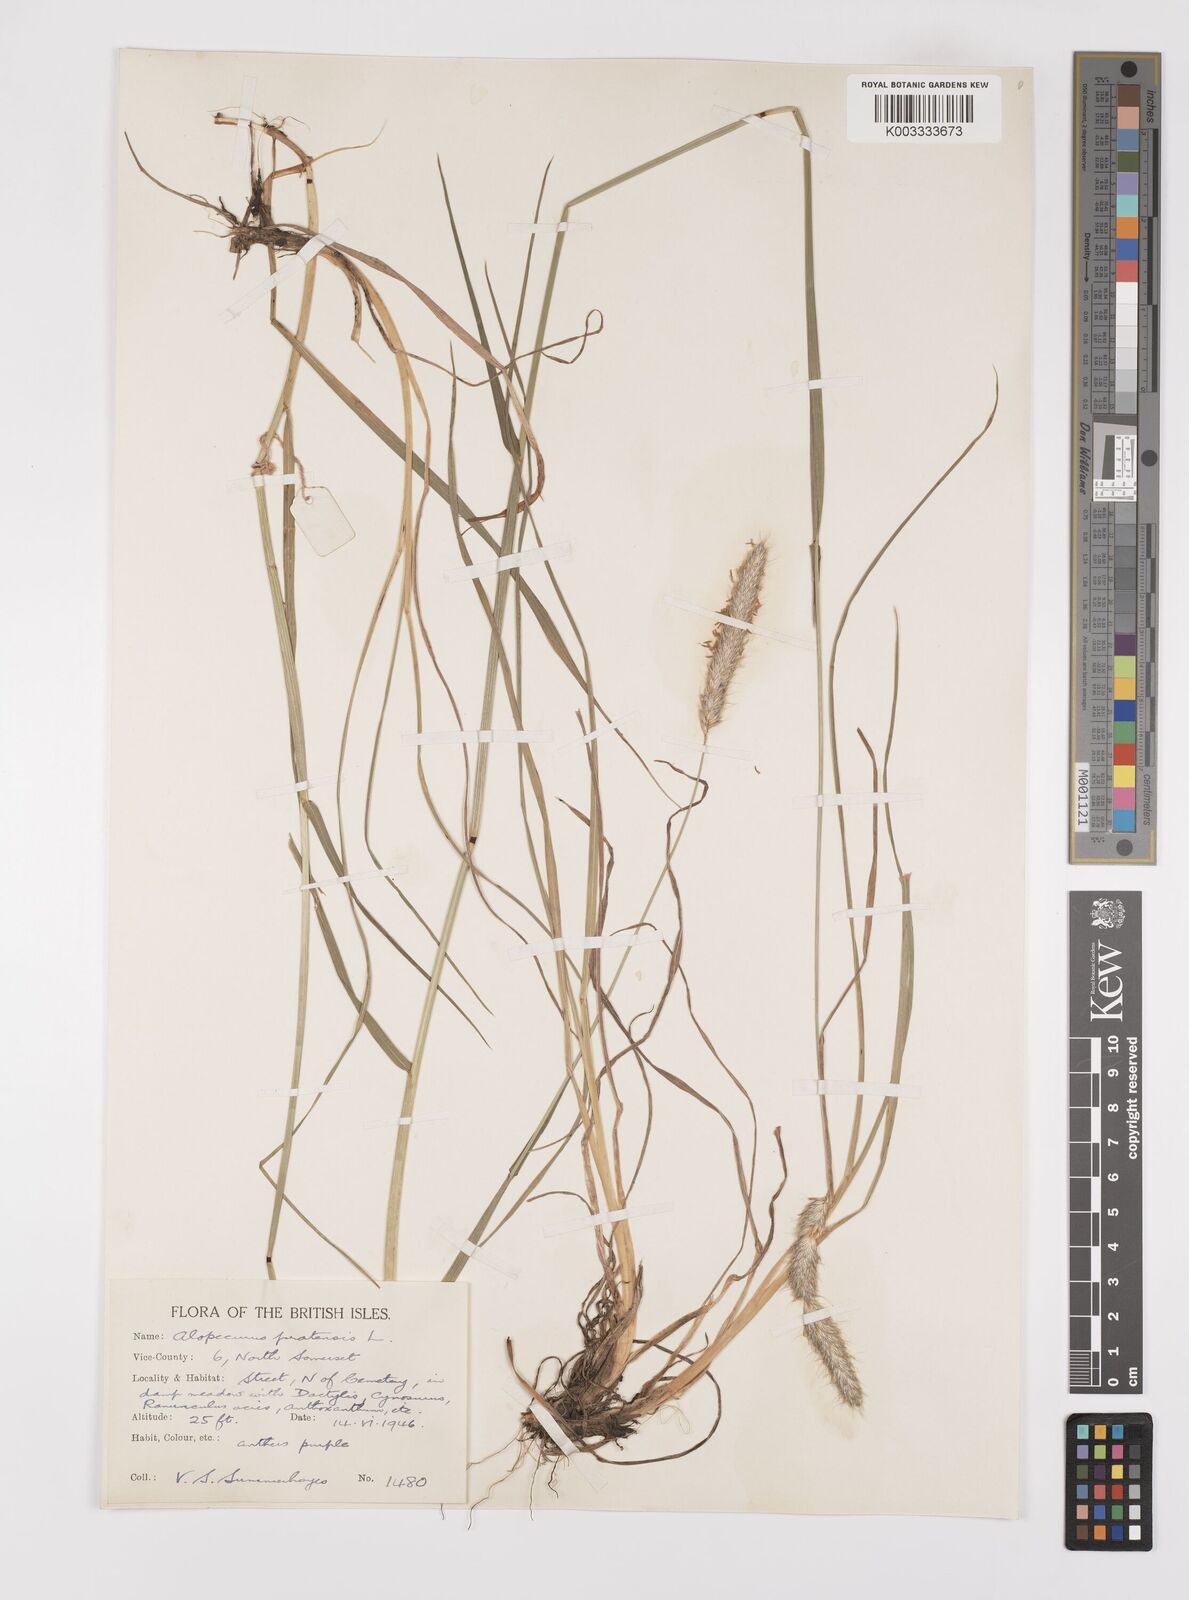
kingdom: Plantae
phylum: Tracheophyta
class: Liliopsida
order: Poales
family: Poaceae
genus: Alopecurus
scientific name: Alopecurus pratensis
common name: Meadow foxtail
